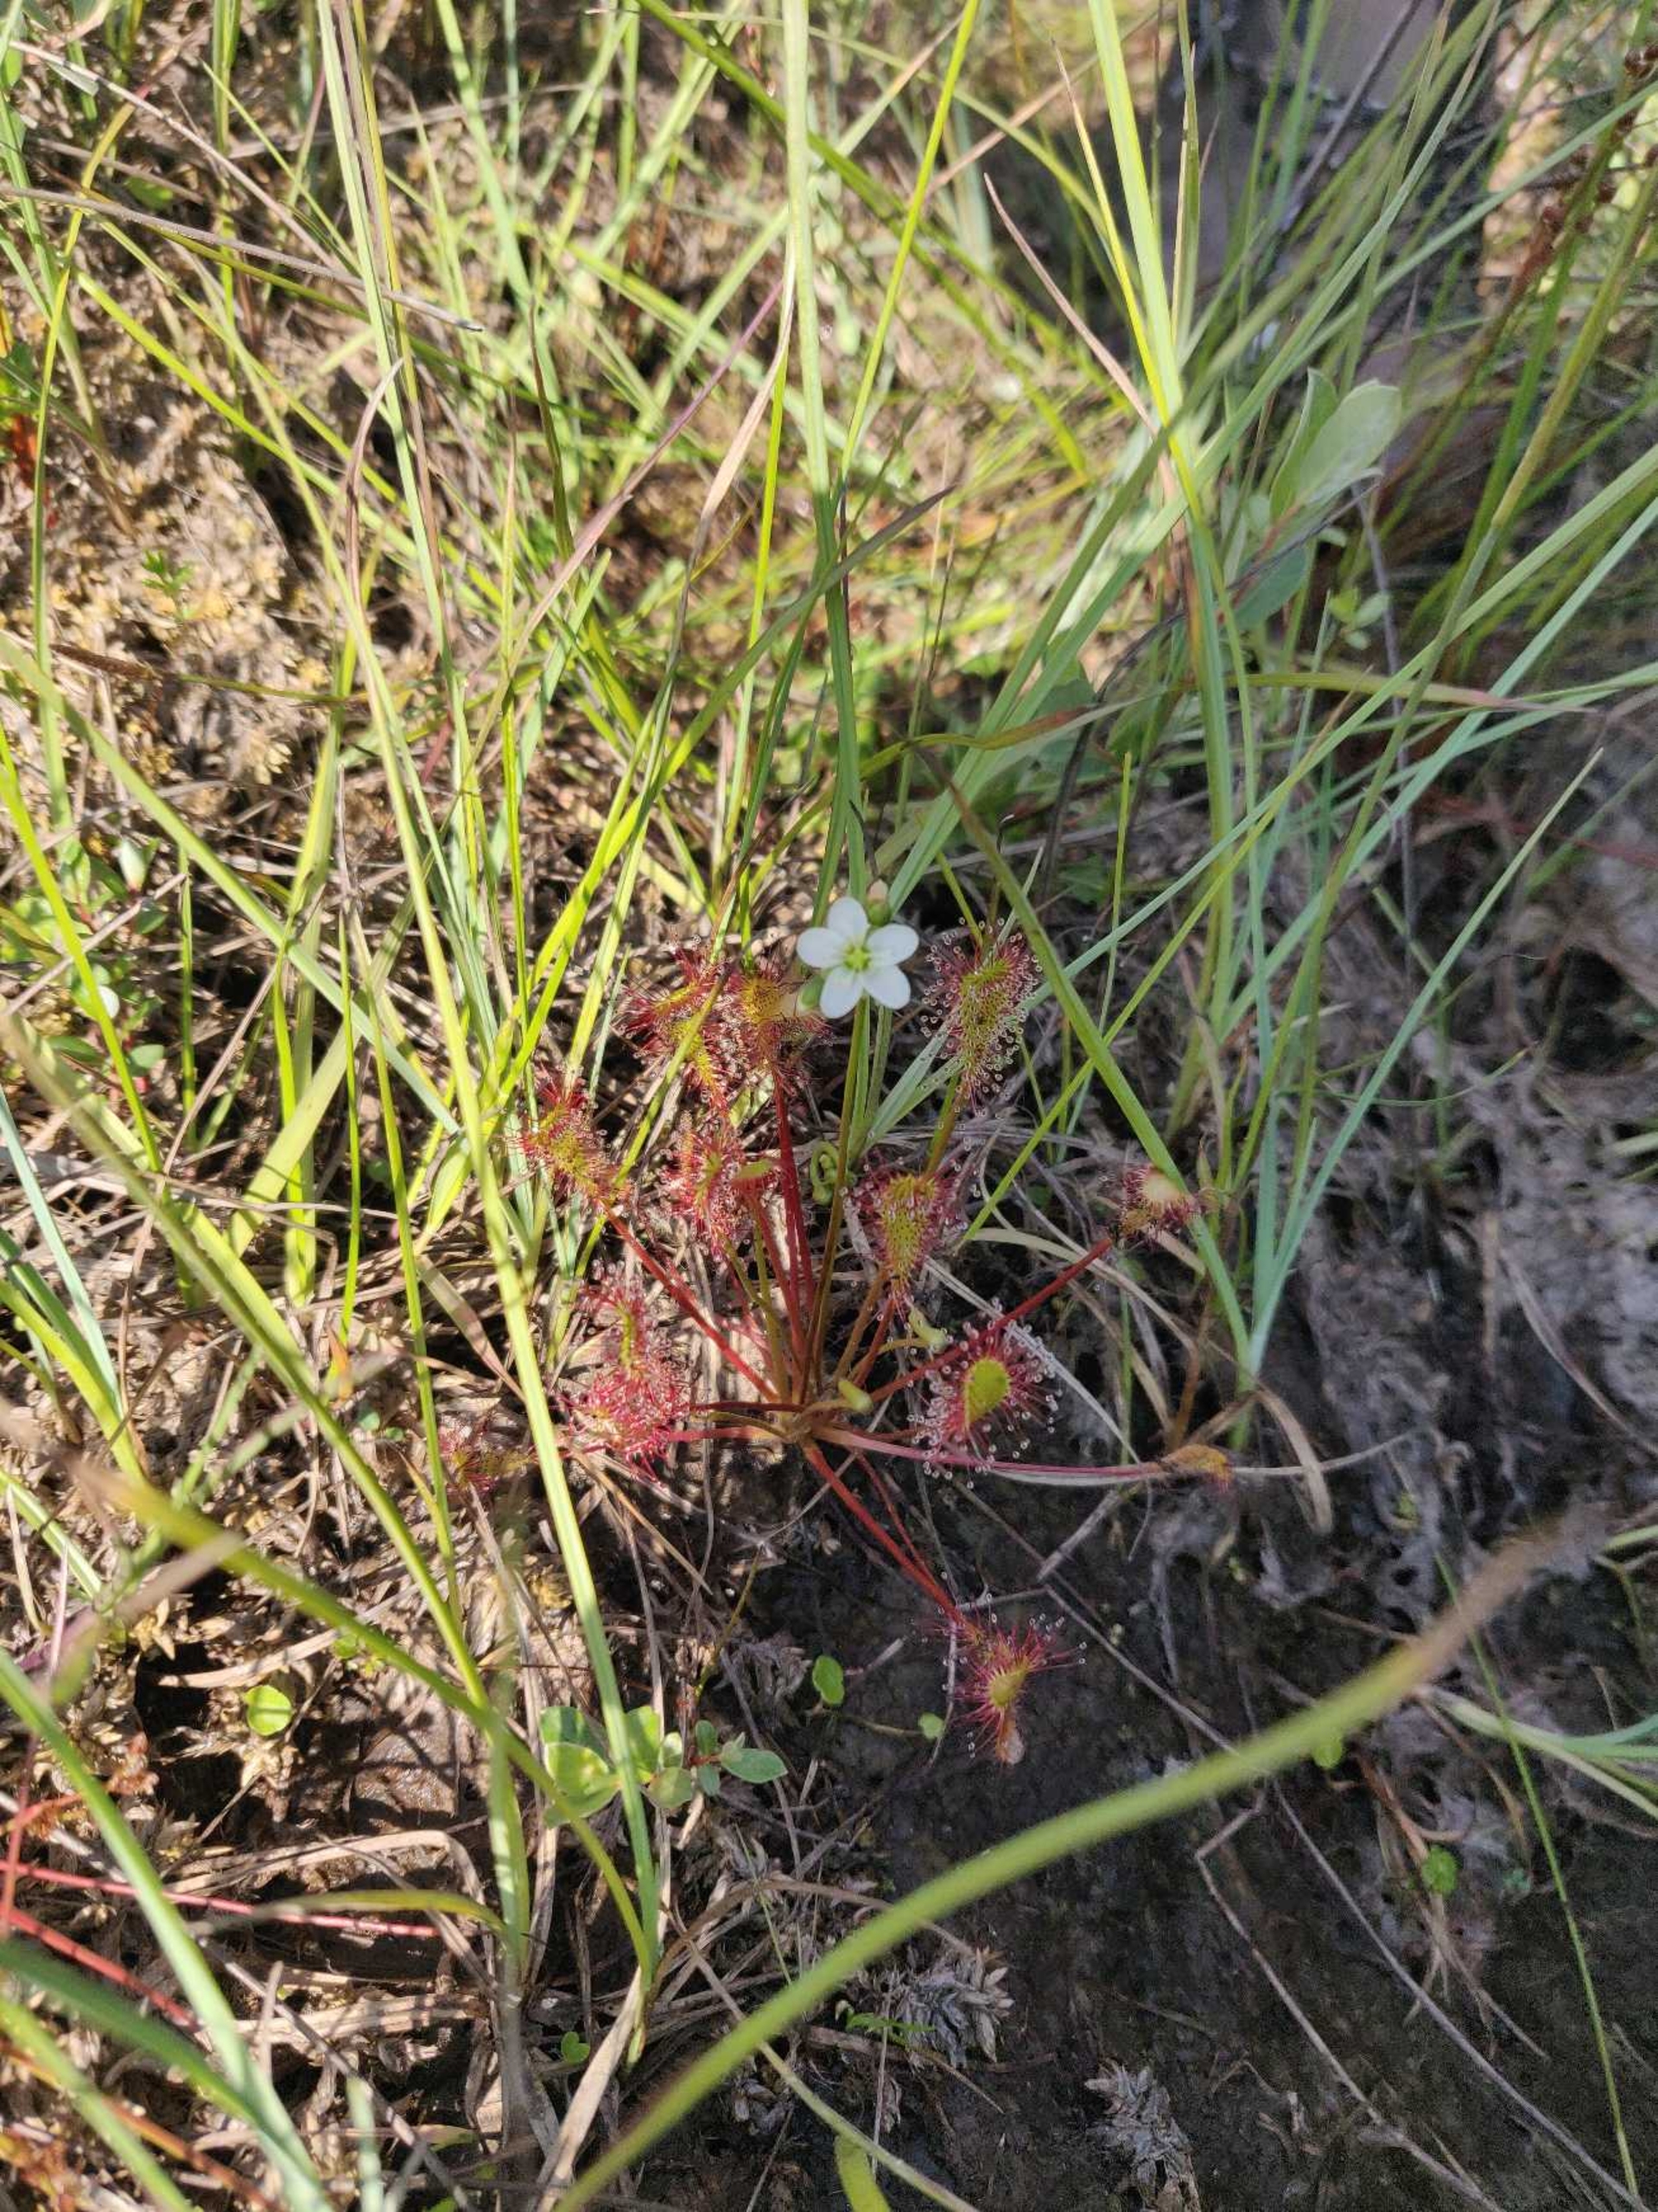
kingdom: Plantae
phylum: Tracheophyta
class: Magnoliopsida
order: Caryophyllales
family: Droseraceae
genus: Drosera
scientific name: Drosera anglica
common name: Langbladet soldug
